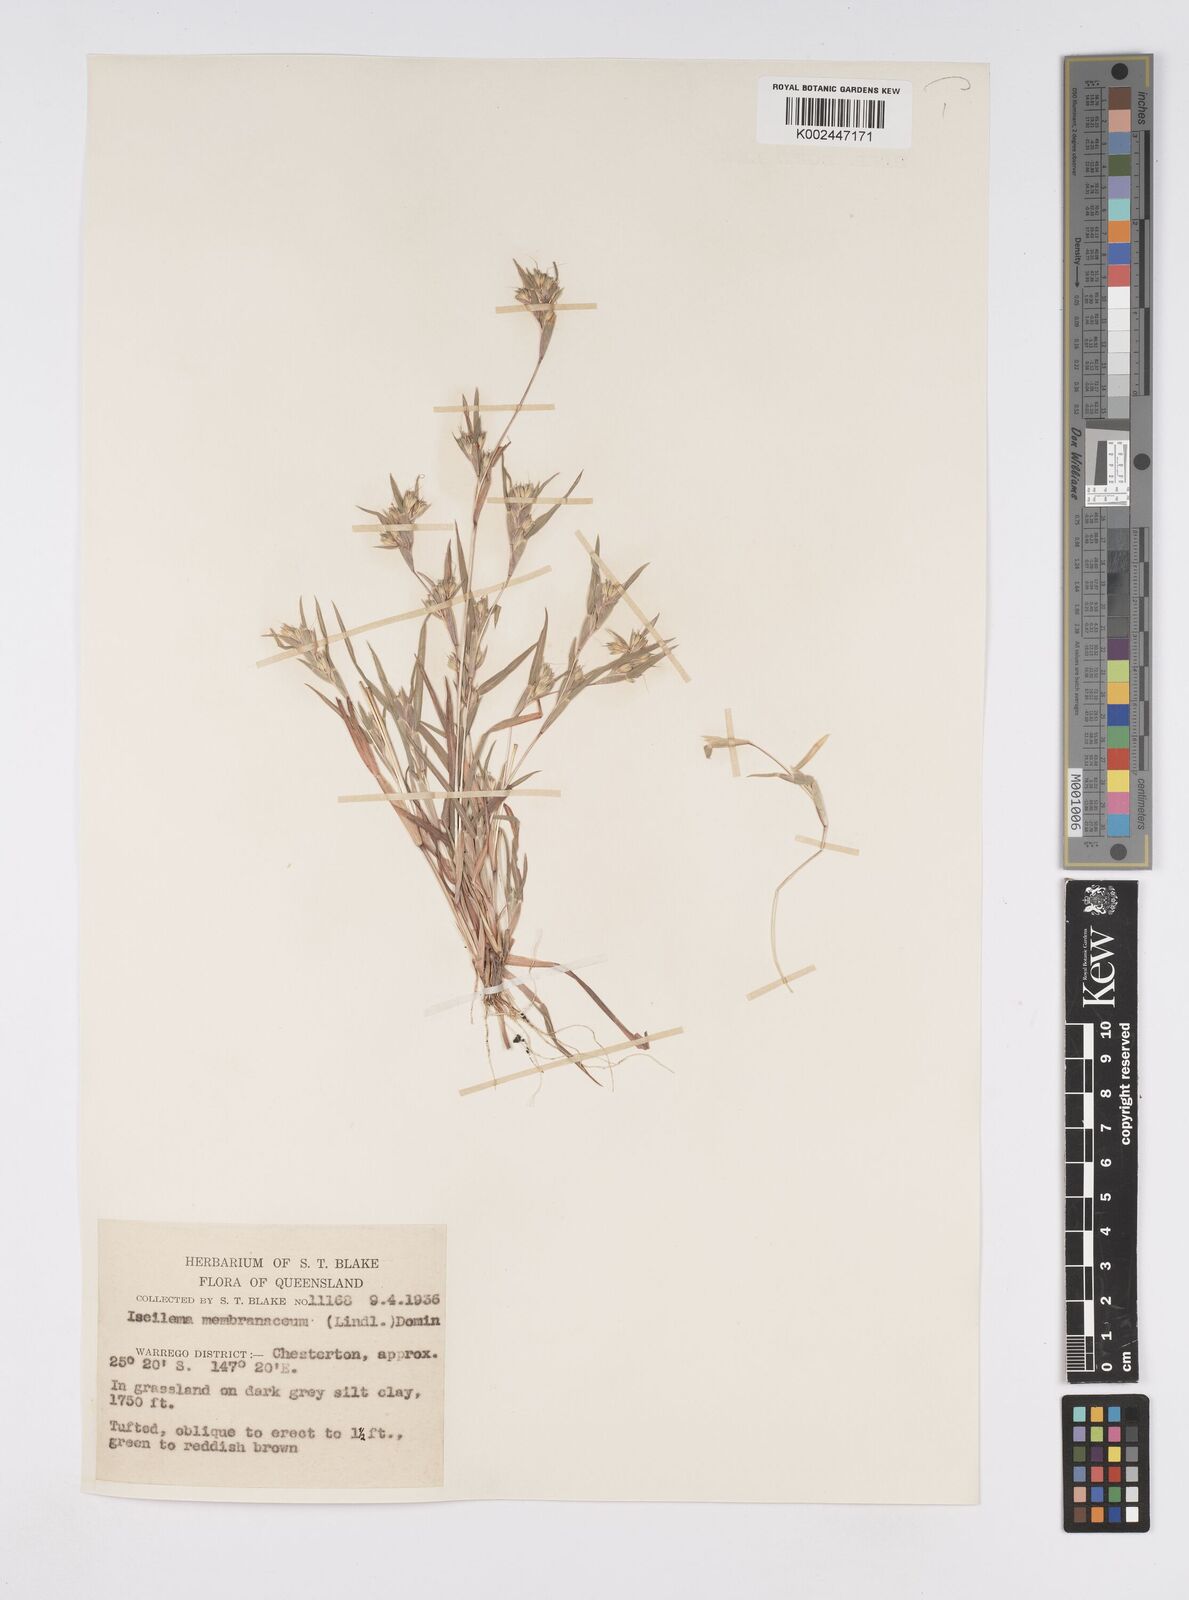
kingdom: Plantae
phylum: Tracheophyta
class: Liliopsida
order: Poales
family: Poaceae
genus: Iseilema
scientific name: Iseilema membranaceum
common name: Small flinders grass
